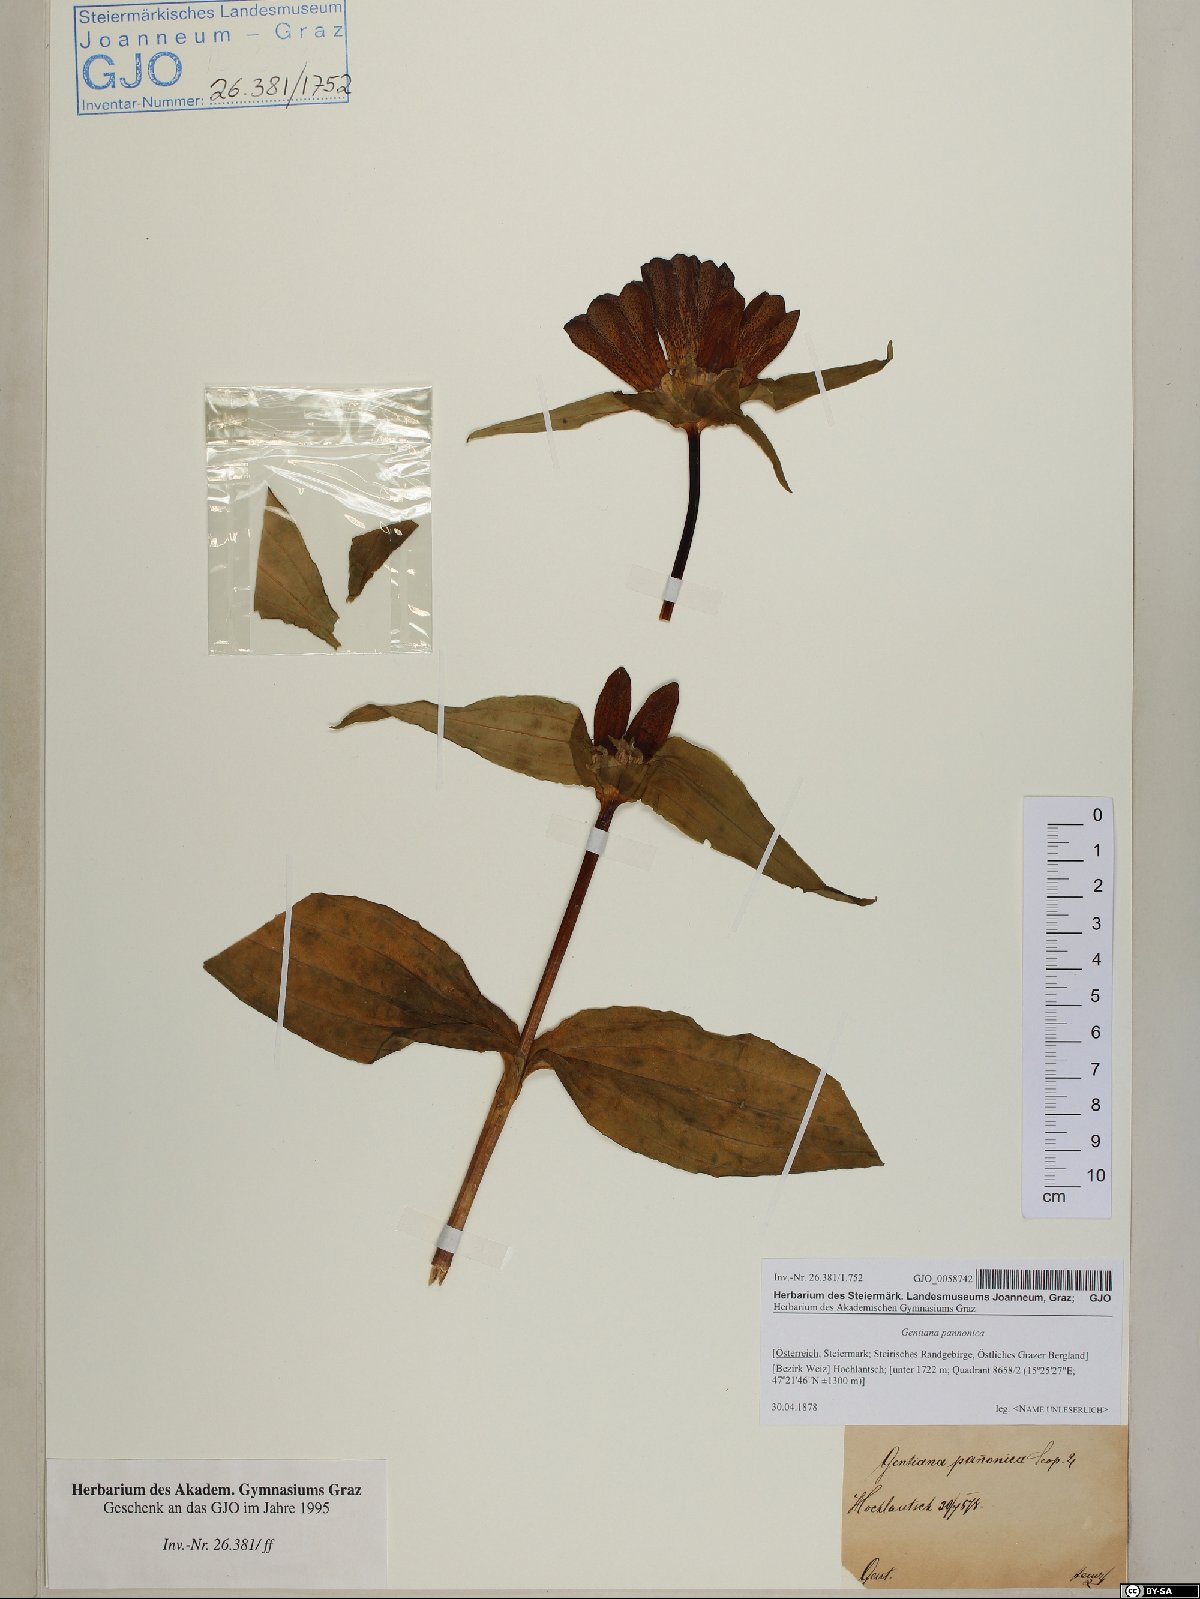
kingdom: Plantae
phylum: Tracheophyta
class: Magnoliopsida
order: Gentianales
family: Gentianaceae
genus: Gentiana
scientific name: Gentiana pannonica
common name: Hungarian gentian
